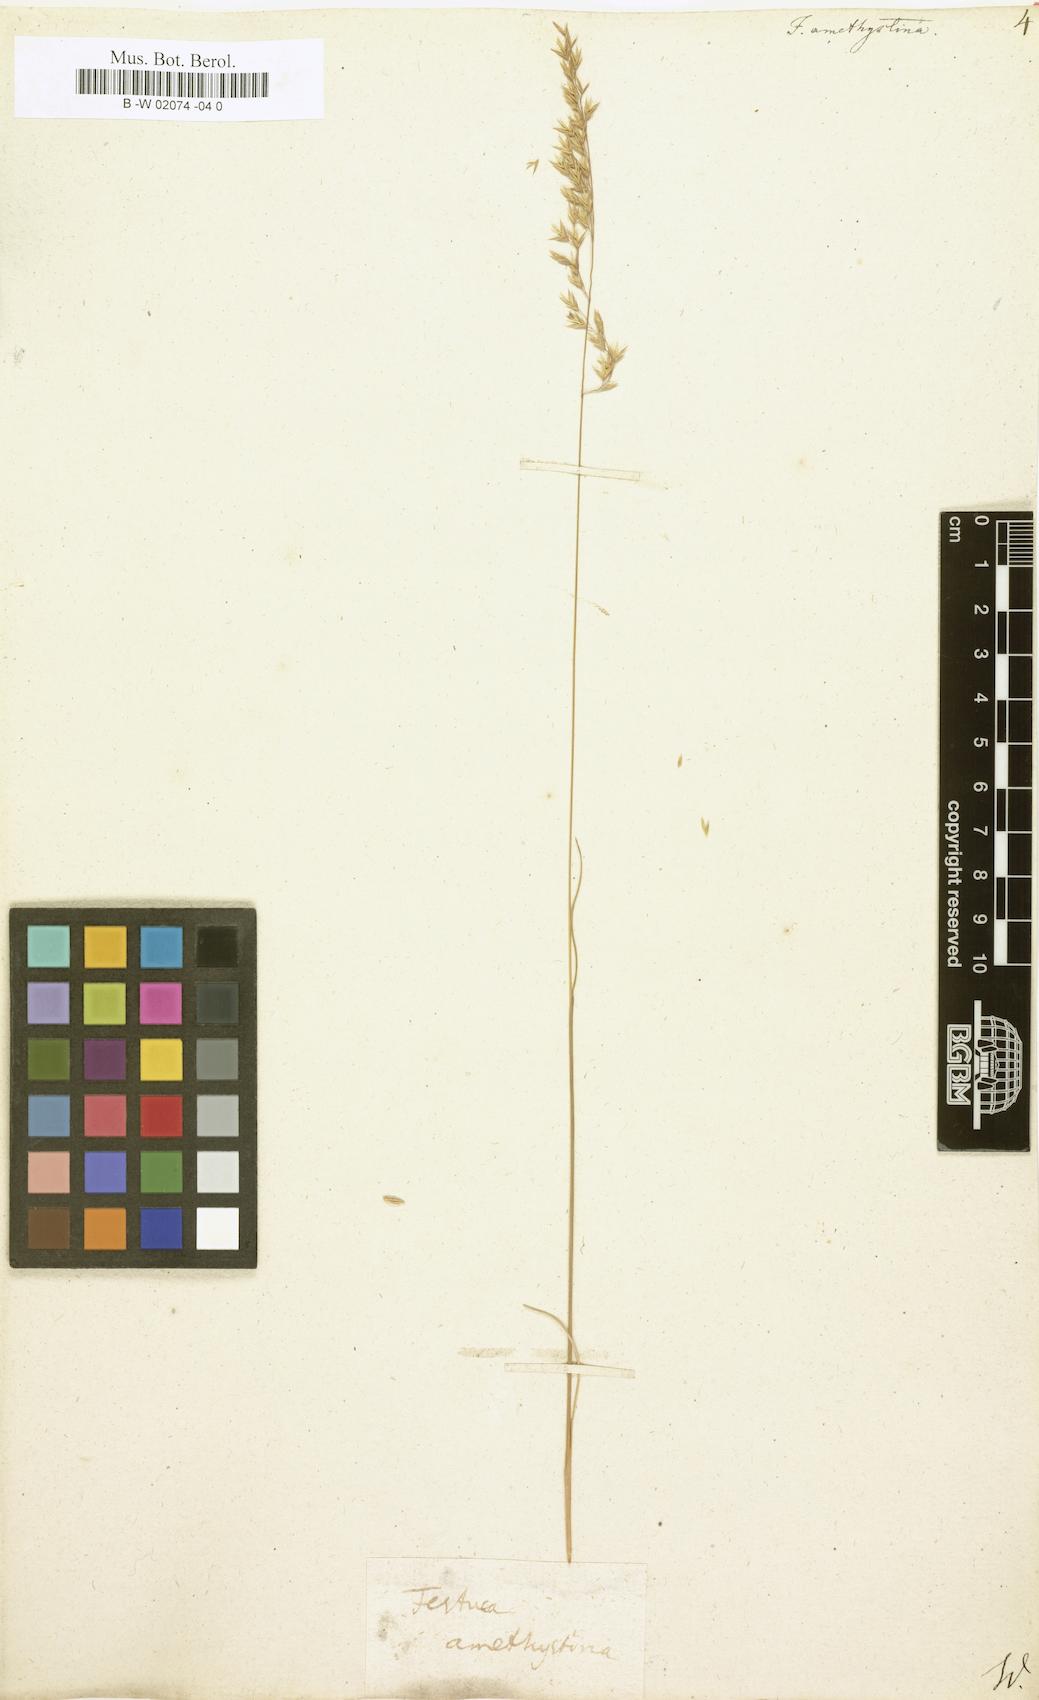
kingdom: Plantae
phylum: Tracheophyta
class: Liliopsida
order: Poales
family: Poaceae
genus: Festuca
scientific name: Festuca amethystina
